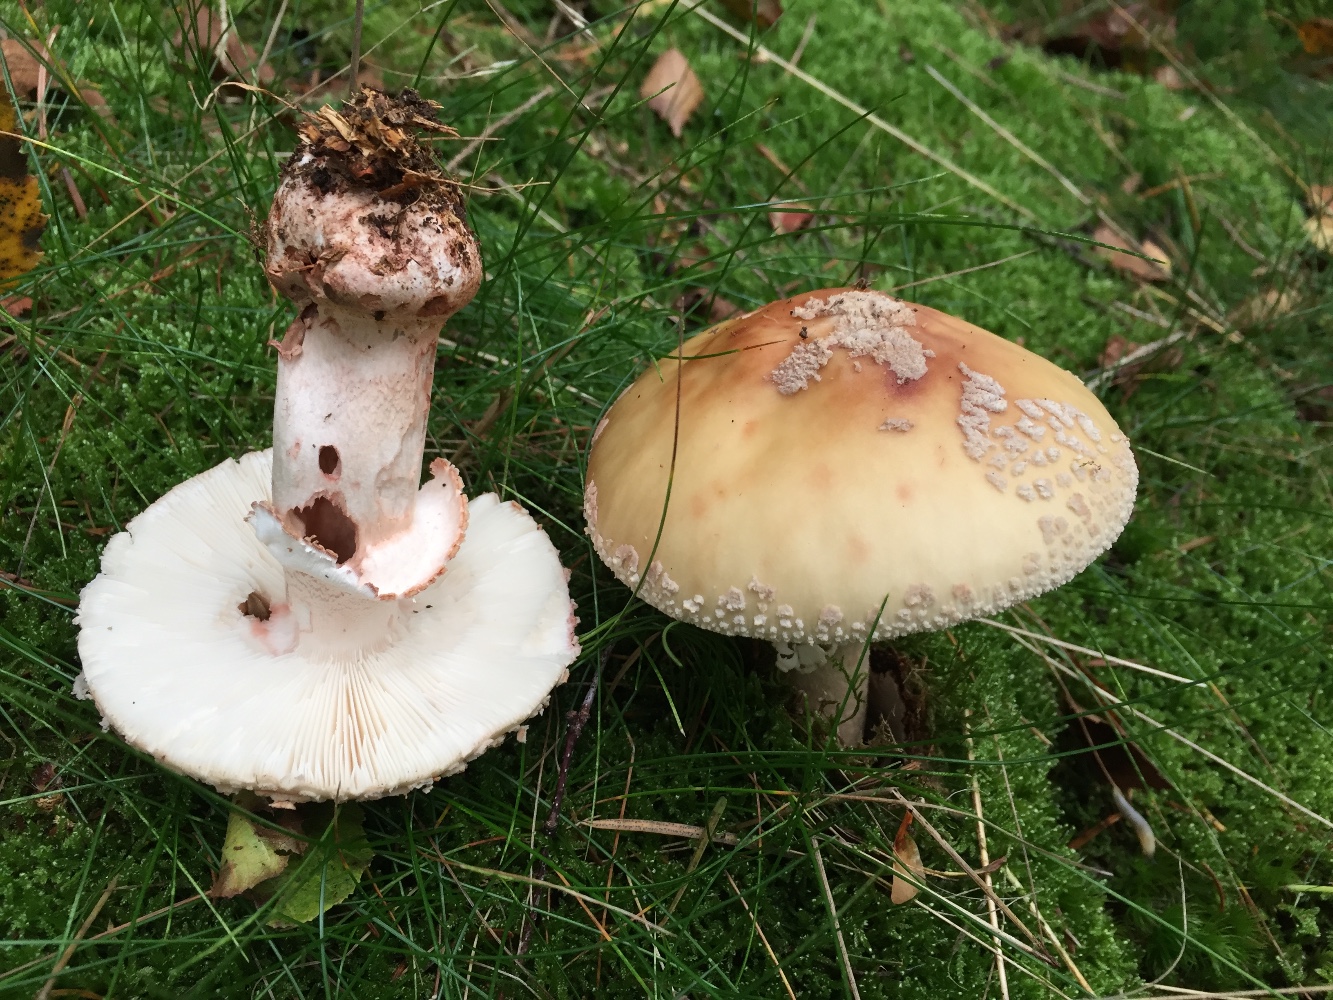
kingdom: Fungi
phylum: Basidiomycota
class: Agaricomycetes
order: Agaricales
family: Amanitaceae
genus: Amanita
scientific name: Amanita rubescens
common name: rødmende fluesvamp
